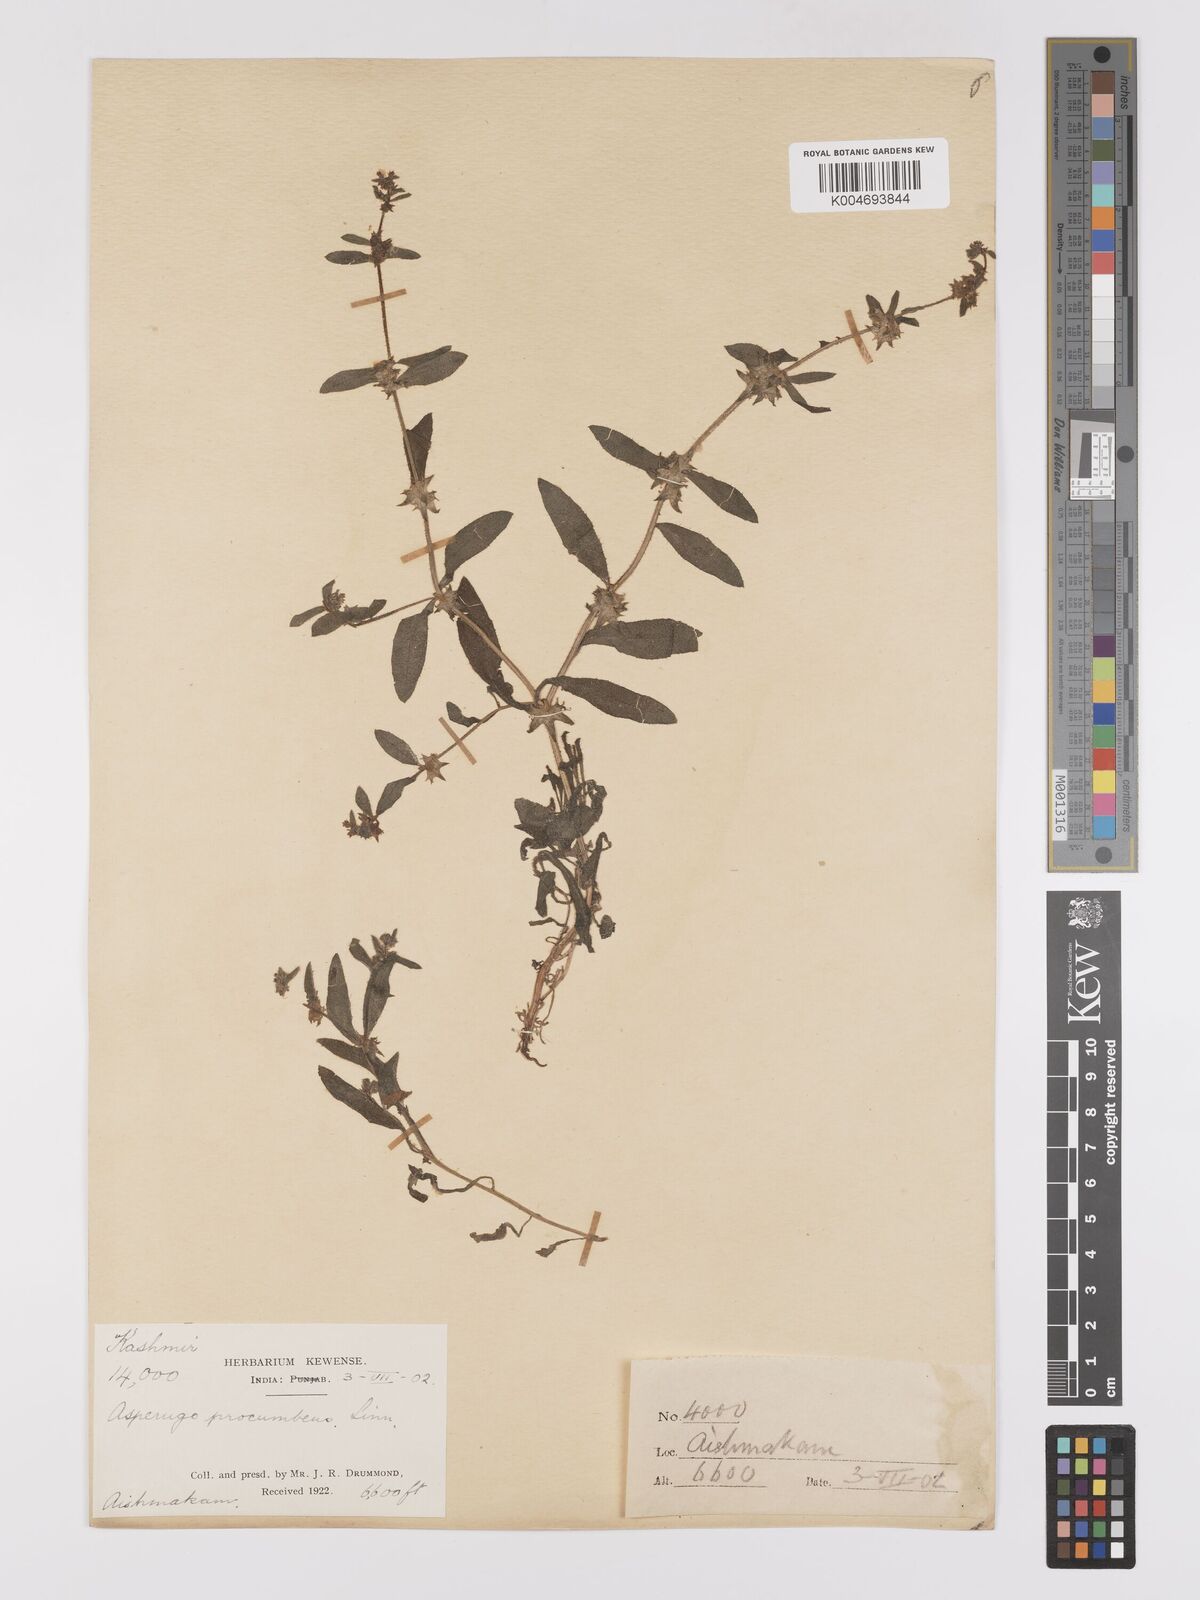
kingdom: Plantae
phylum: Tracheophyta
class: Magnoliopsida
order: Boraginales
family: Boraginaceae
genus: Asperugo
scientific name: Asperugo procumbens
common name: Madwort
